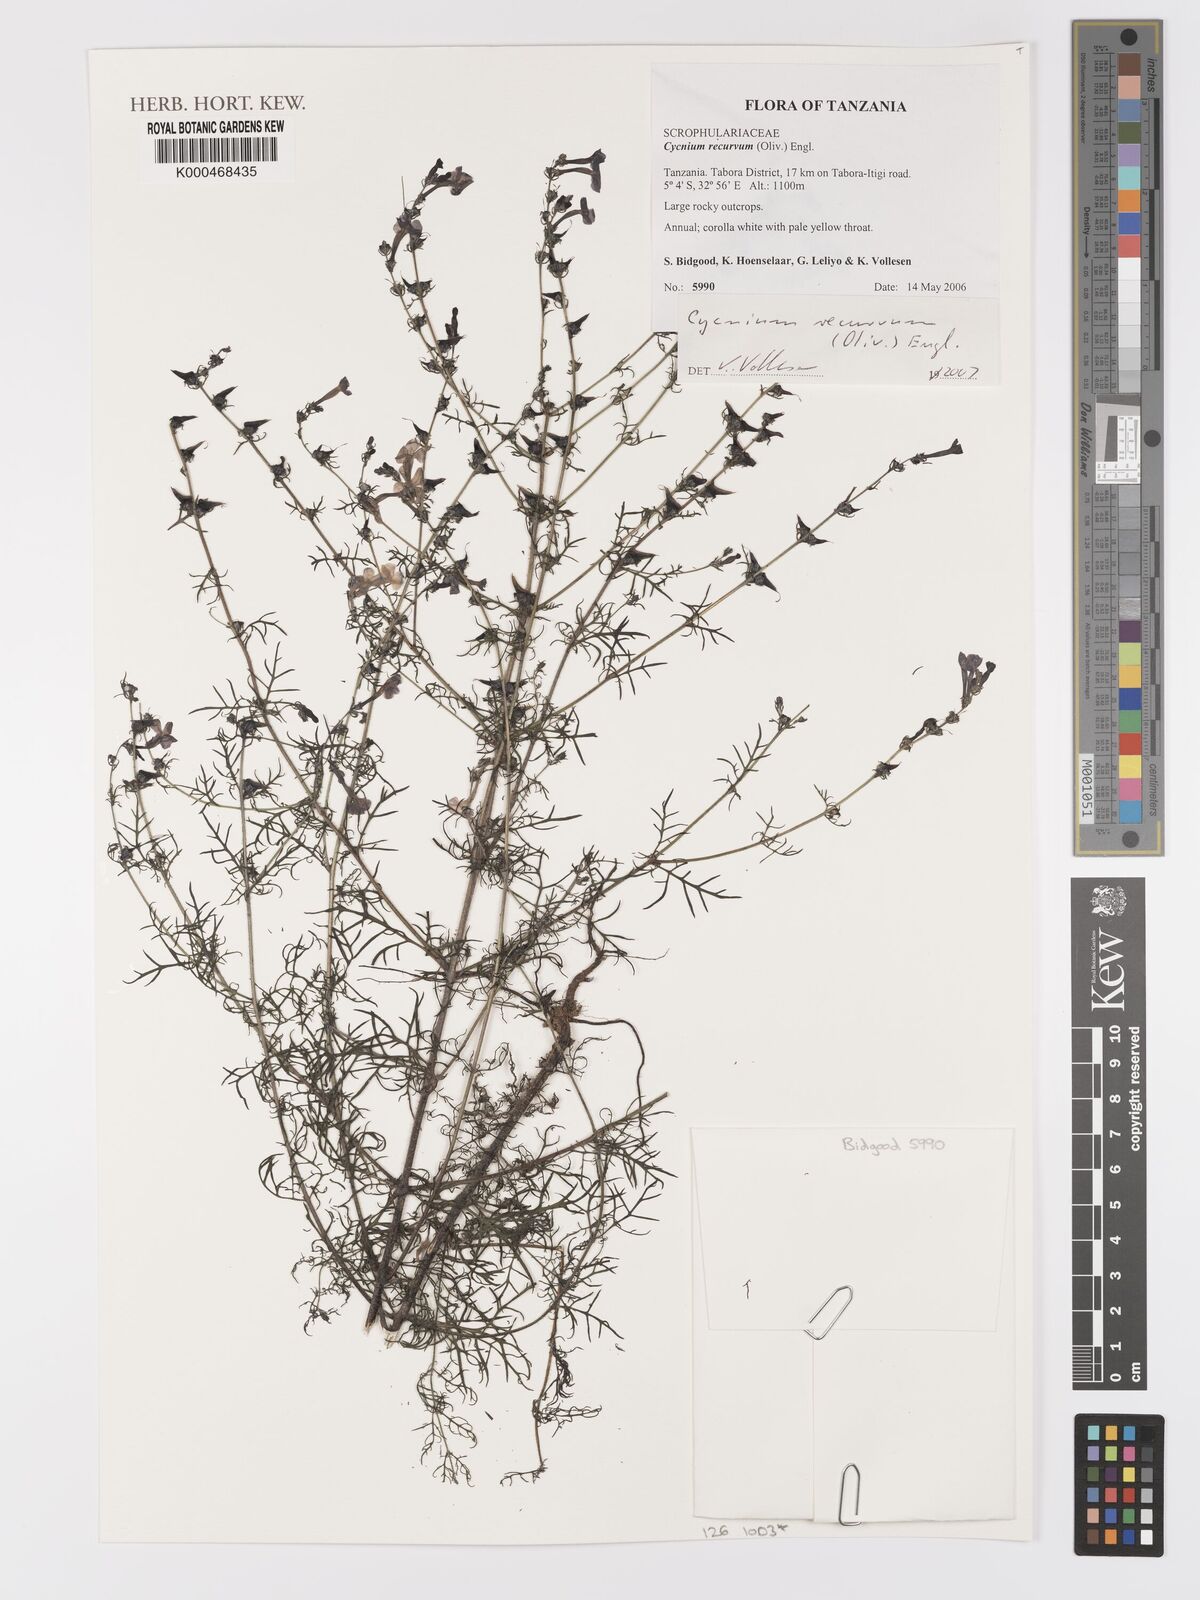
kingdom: Plantae
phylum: Tracheophyta
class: Magnoliopsida
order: Lamiales
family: Orobanchaceae
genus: Cycnium
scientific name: Cycnium recurvum
